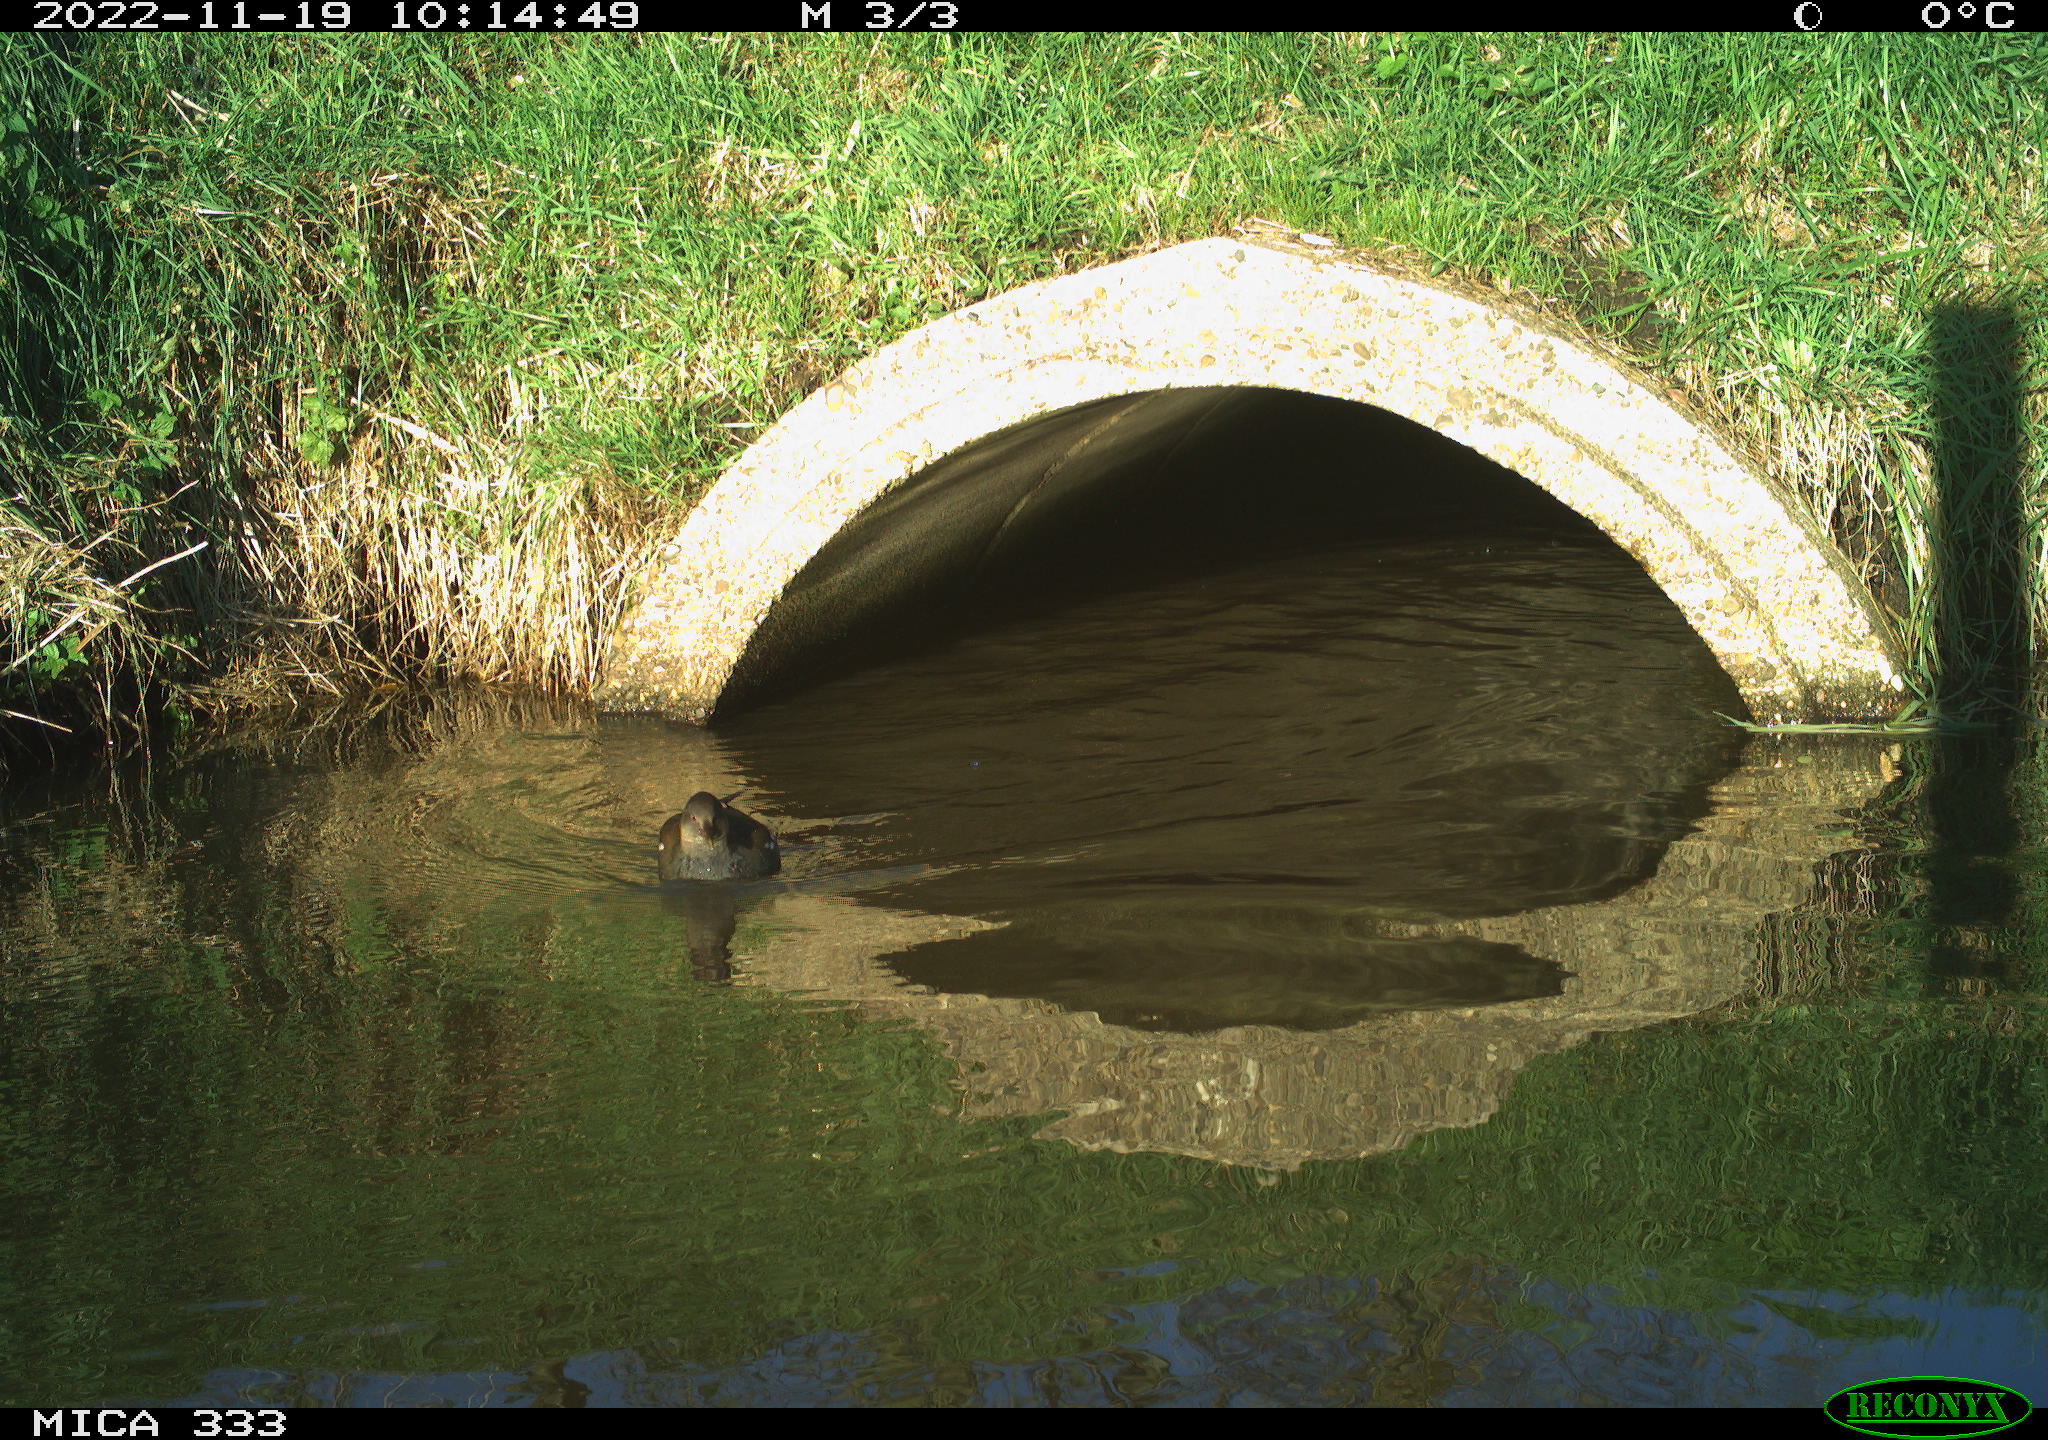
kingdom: Animalia
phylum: Chordata
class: Aves
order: Gruiformes
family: Rallidae
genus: Gallinula
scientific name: Gallinula chloropus
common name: Common moorhen
